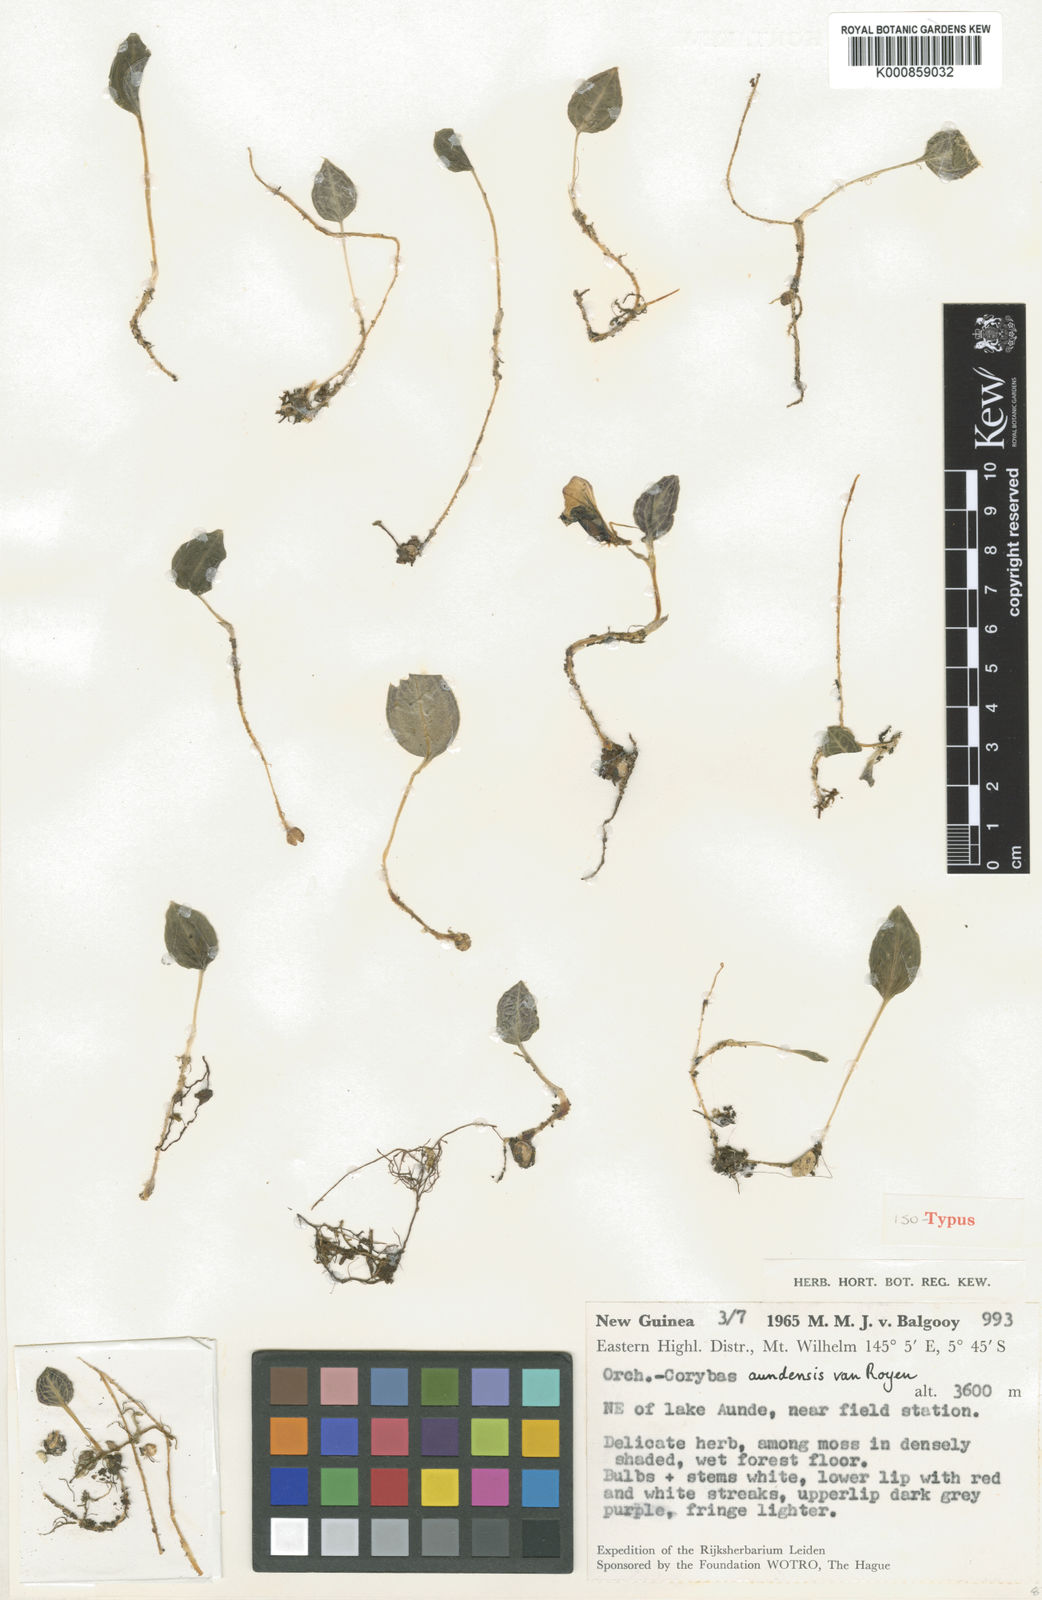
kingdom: Plantae
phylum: Tracheophyta
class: Liliopsida
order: Asparagales
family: Orchidaceae
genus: Corybas
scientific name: Corybas royenii
